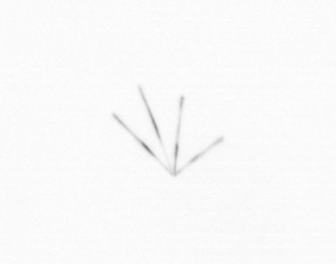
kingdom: Chromista
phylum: Ochrophyta
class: Bacillariophyceae
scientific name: Bacillariophyceae
